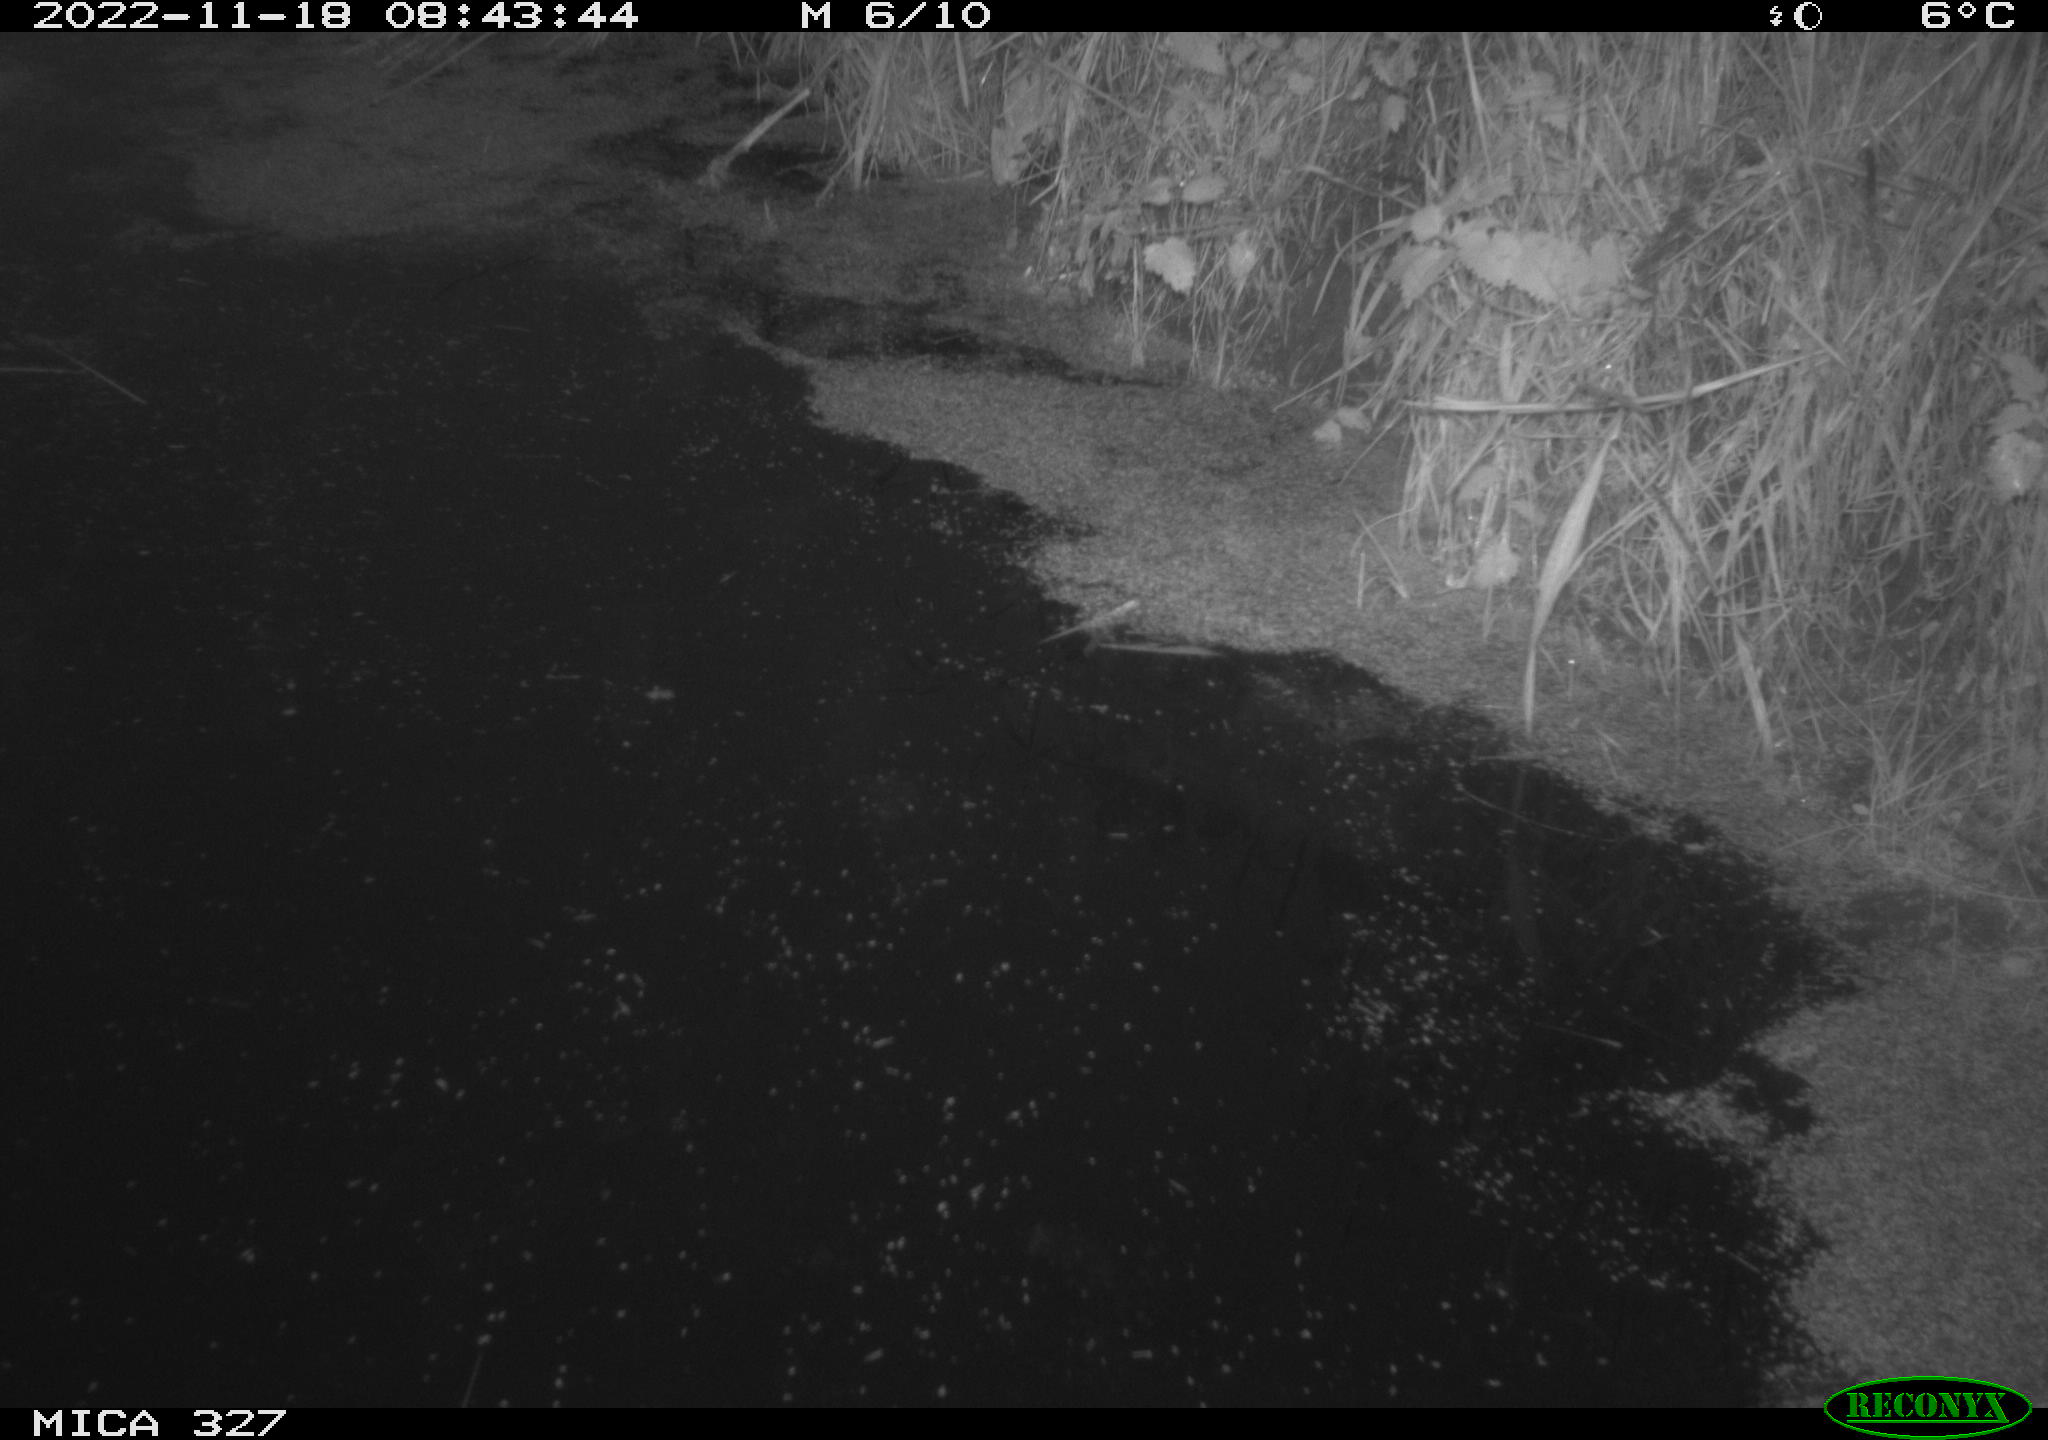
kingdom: Animalia
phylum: Chordata
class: Aves
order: Anseriformes
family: Anatidae
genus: Anas
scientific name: Anas
